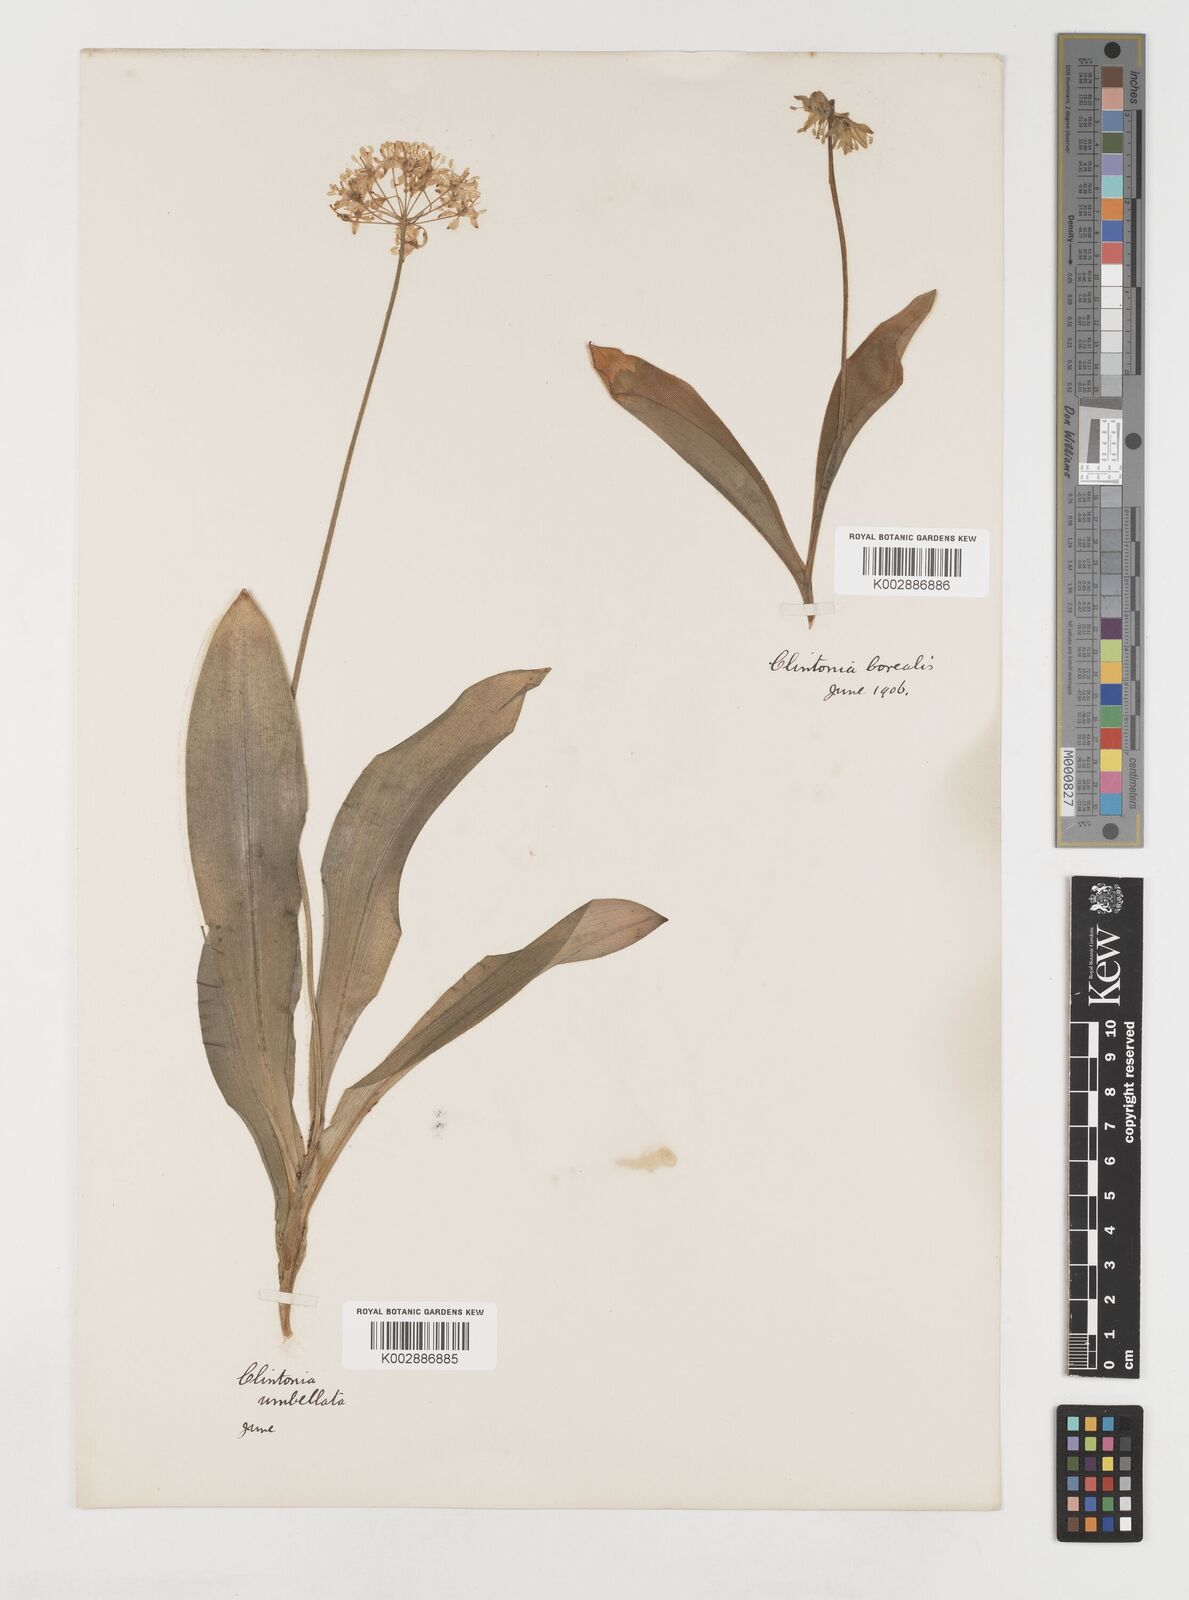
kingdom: Plantae
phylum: Tracheophyta
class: Liliopsida
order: Liliales
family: Liliaceae
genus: Clintonia
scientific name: Clintonia umbellulata
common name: Speckle wood-lily
